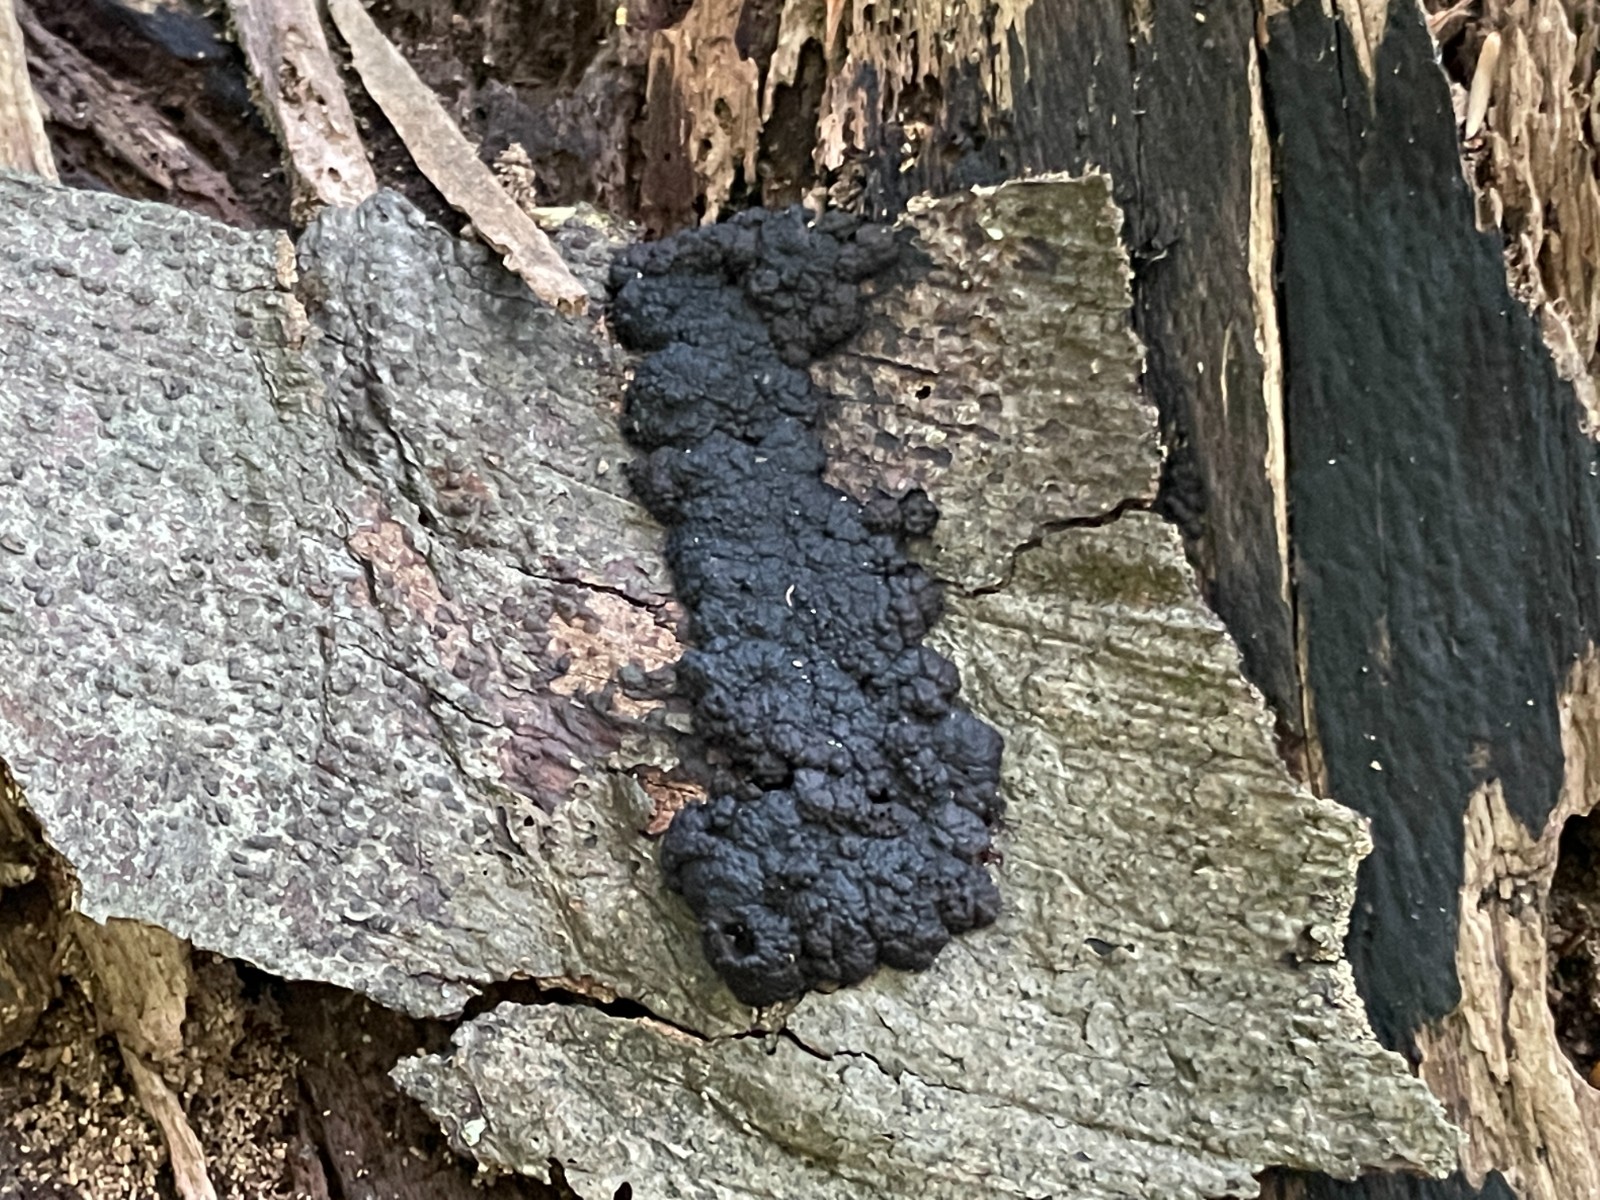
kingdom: Fungi
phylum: Ascomycota
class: Sordariomycetes
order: Xylariales
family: Hypoxylaceae
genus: Jackrogersella
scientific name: Jackrogersella cohaerens
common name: sammenflydende kulbær
